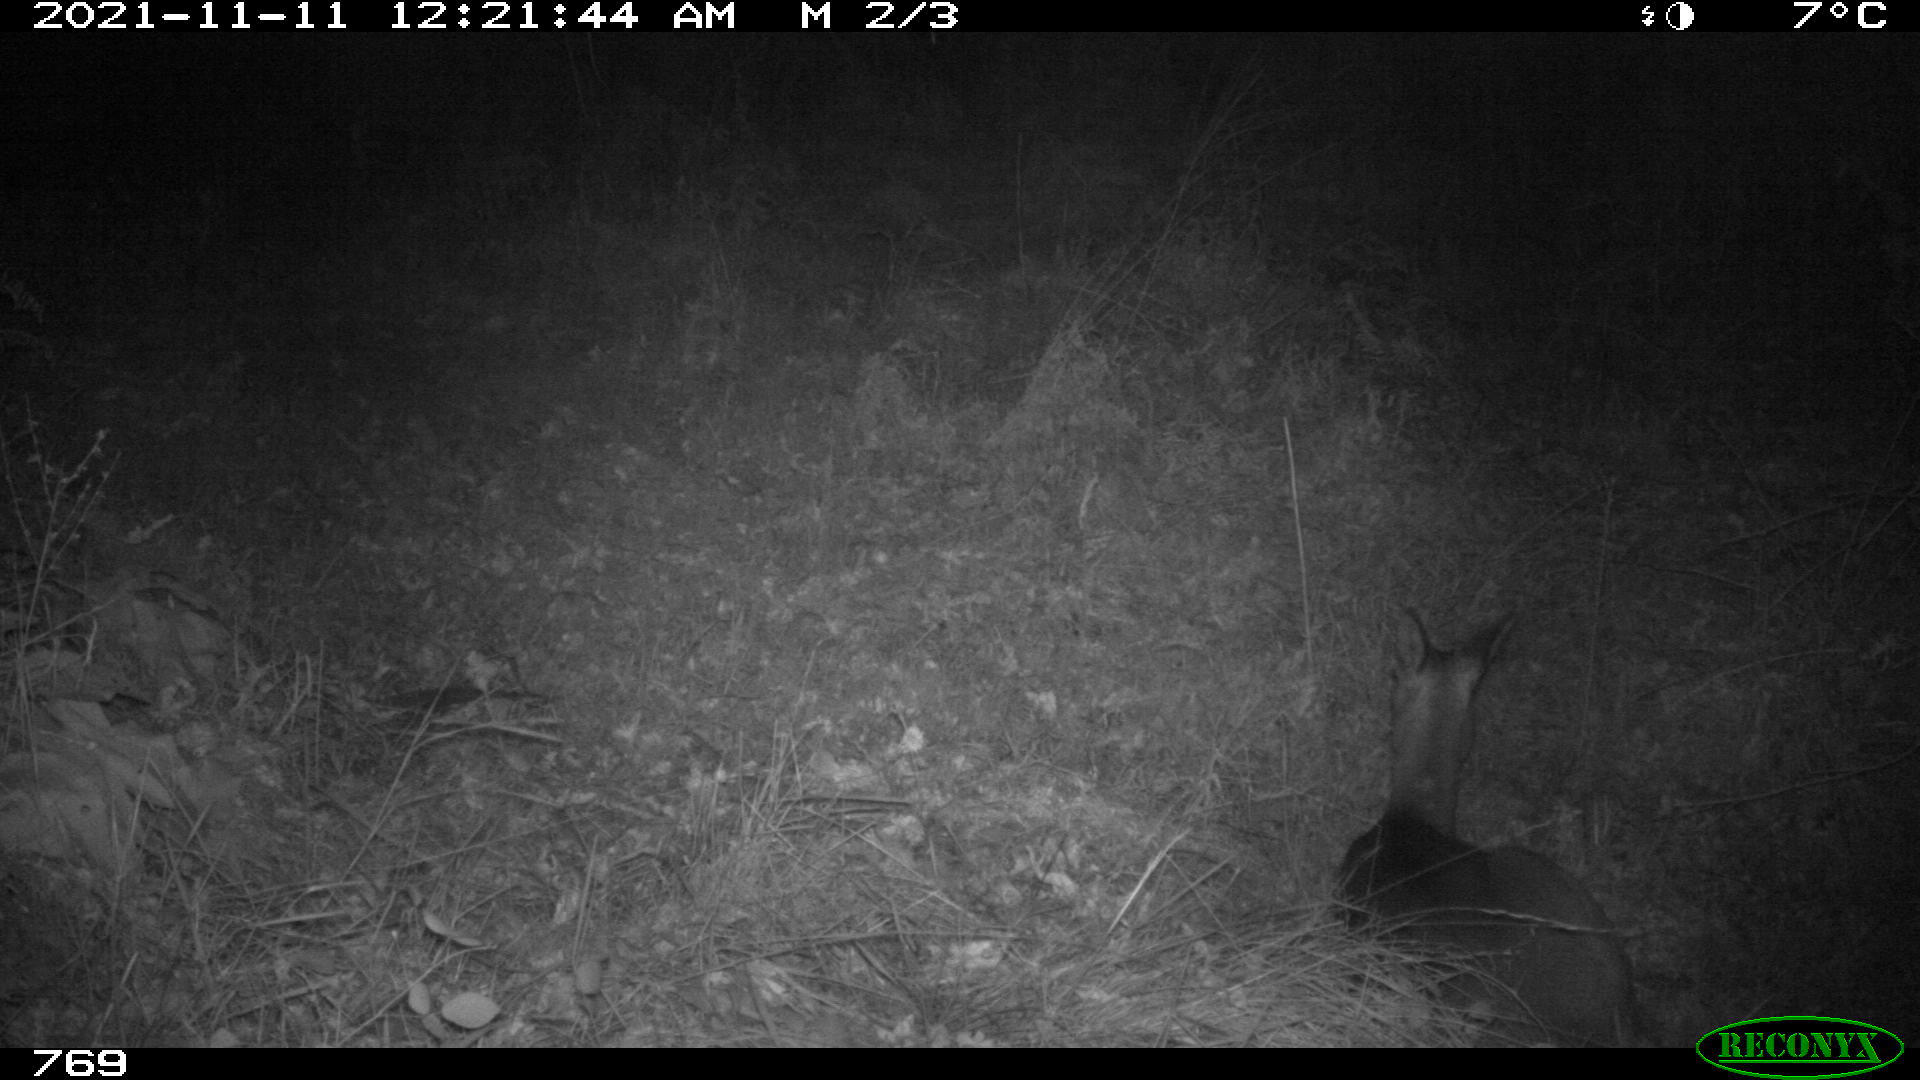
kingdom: Animalia
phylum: Chordata
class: Mammalia
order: Artiodactyla
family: Cervidae
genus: Capreolus
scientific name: Capreolus capreolus
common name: Western roe deer
